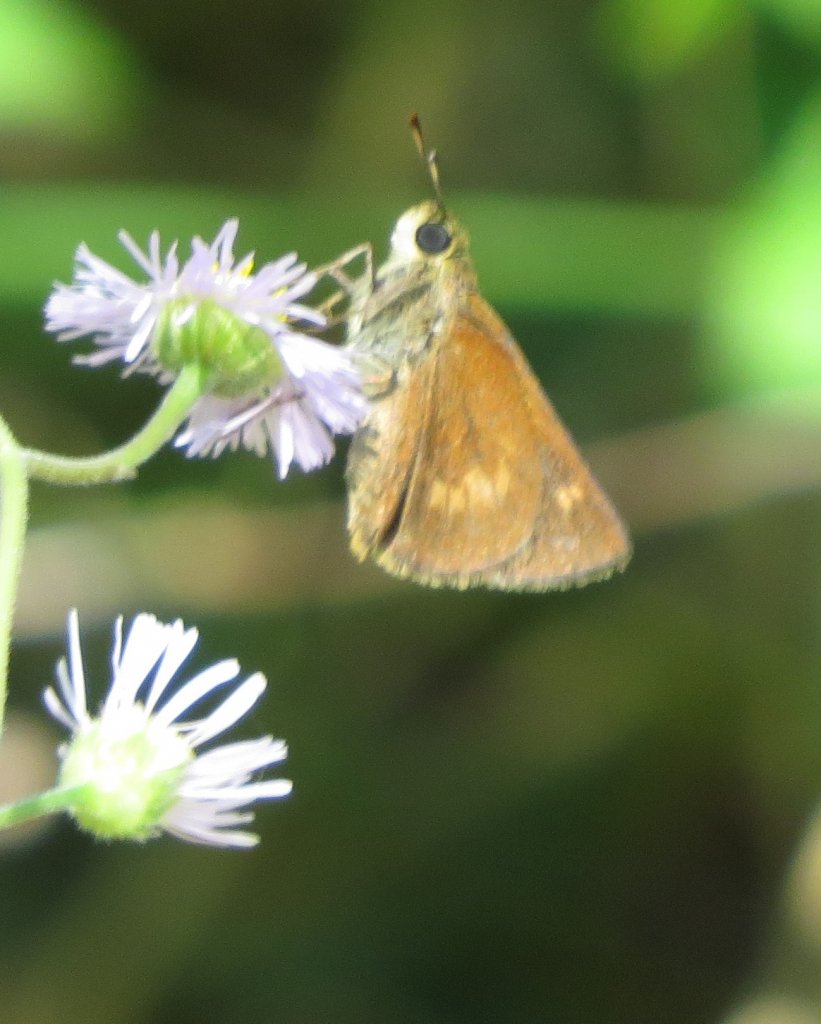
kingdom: Animalia
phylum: Arthropoda
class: Insecta
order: Lepidoptera
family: Hesperiidae
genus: Wallengrenia
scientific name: Wallengrenia otho
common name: Southern Broken-Dash
